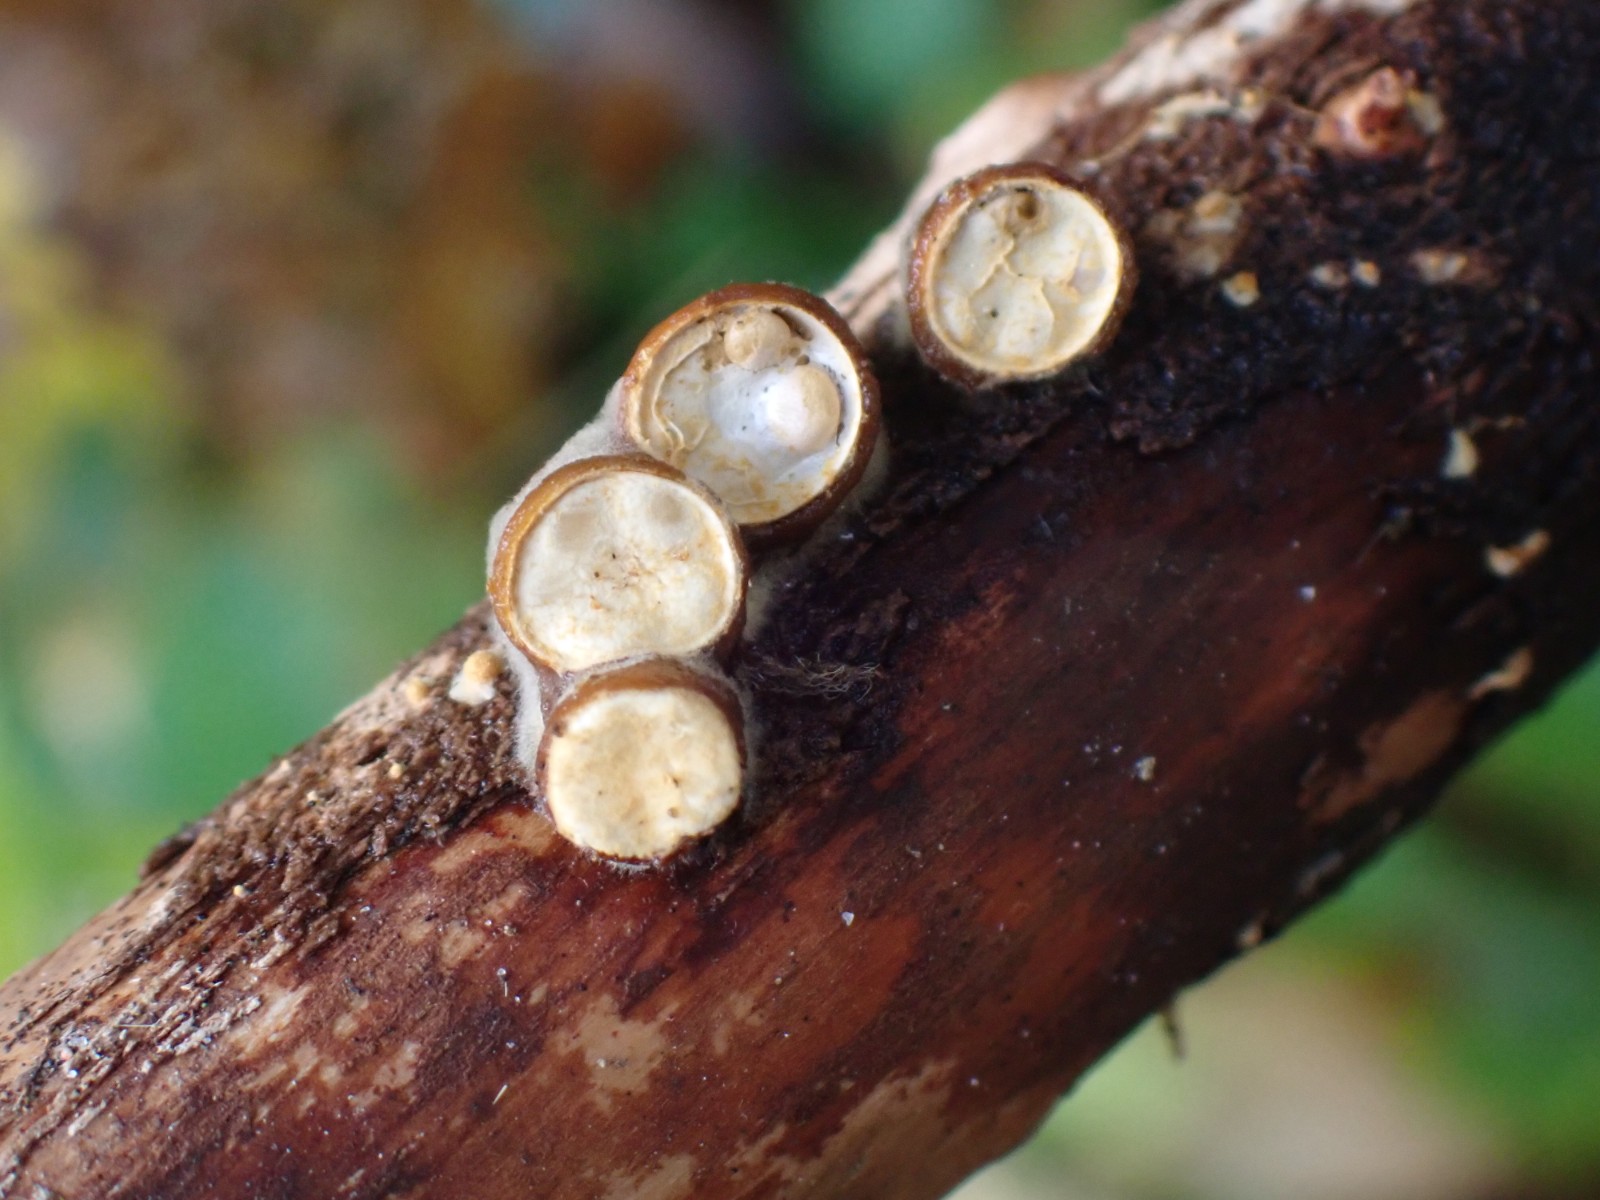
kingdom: Fungi
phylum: Basidiomycota
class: Agaricomycetes
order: Agaricales
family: Nidulariaceae
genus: Crucibulum
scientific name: Crucibulum crucibuliforme
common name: krukkesvamp
